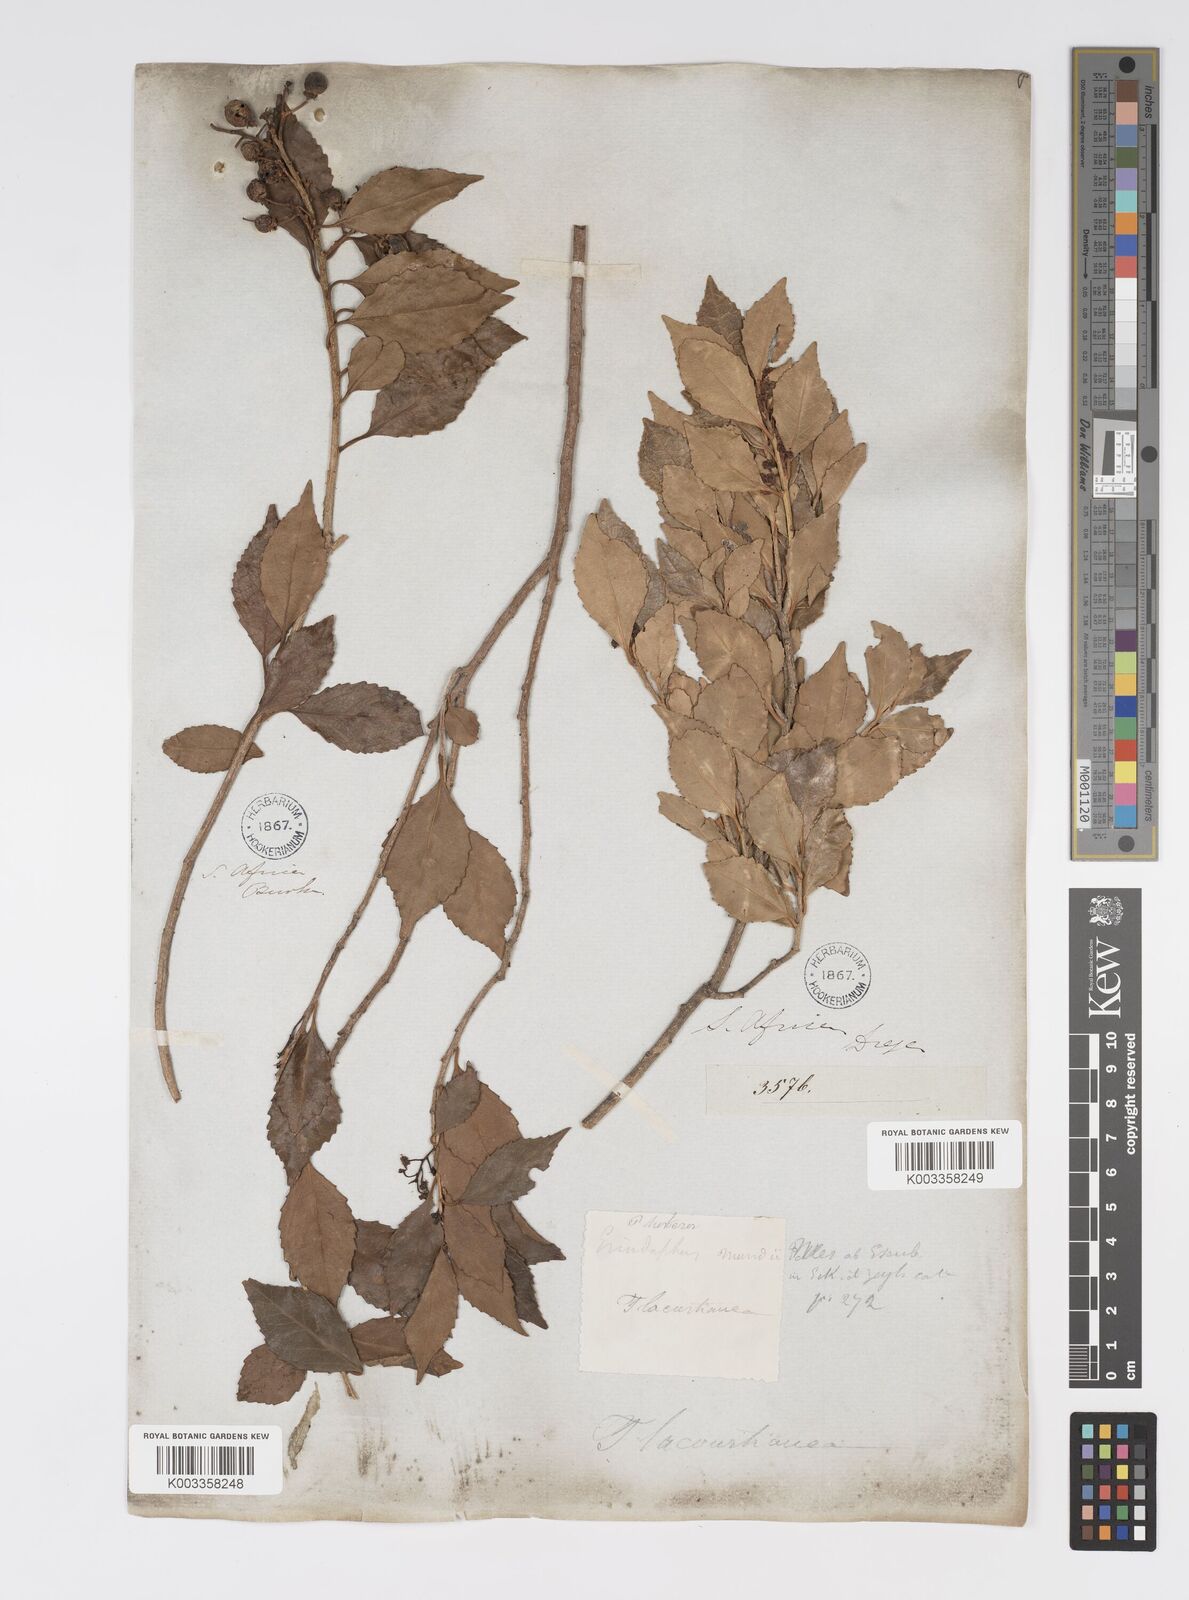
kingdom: Plantae
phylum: Tracheophyta
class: Magnoliopsida
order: Malpighiales
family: Salicaceae
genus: Scolopia
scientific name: Scolopia mundii
